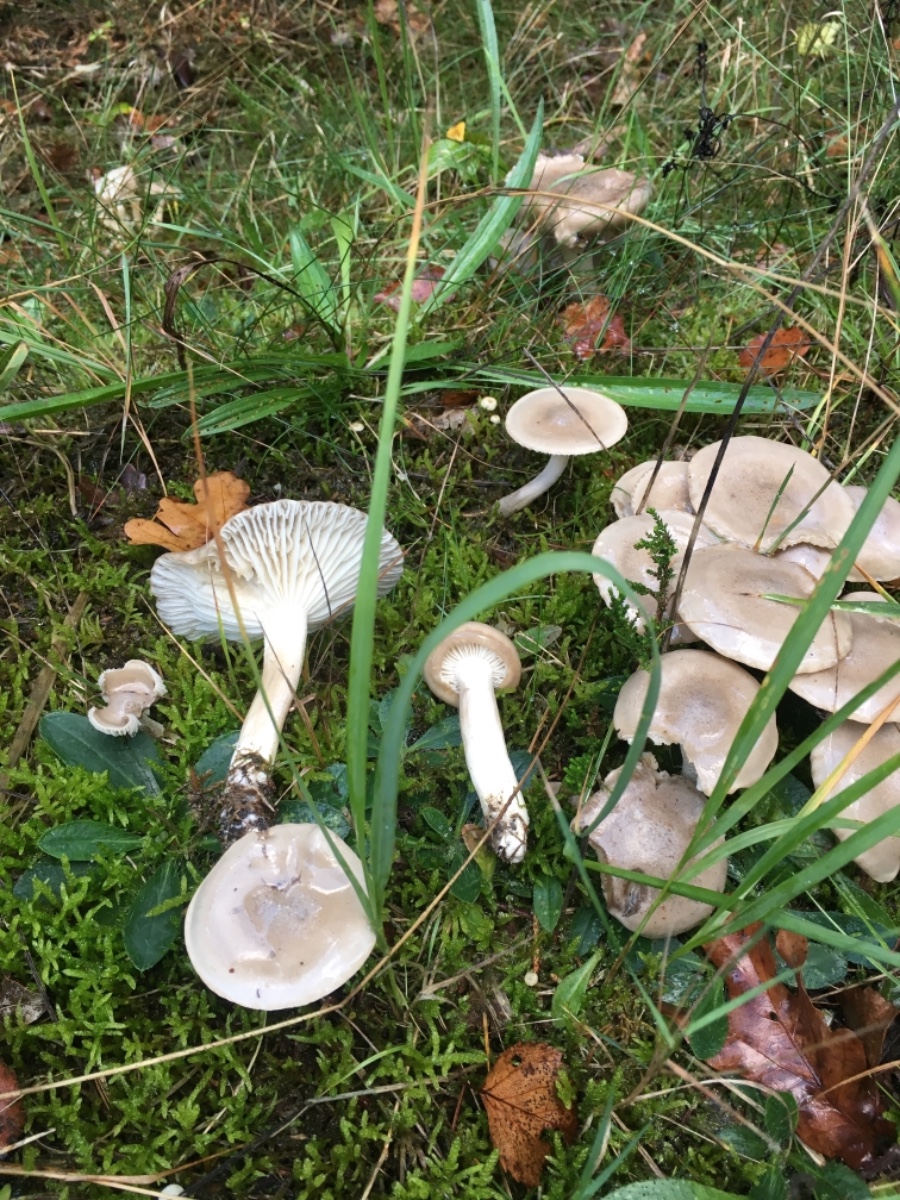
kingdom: Fungi
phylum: Basidiomycota
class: Agaricomycetes
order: Agaricales
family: Hygrophoraceae
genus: Hygrophorus
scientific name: Hygrophorus agathosmus
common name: vellugtende sneglehat
